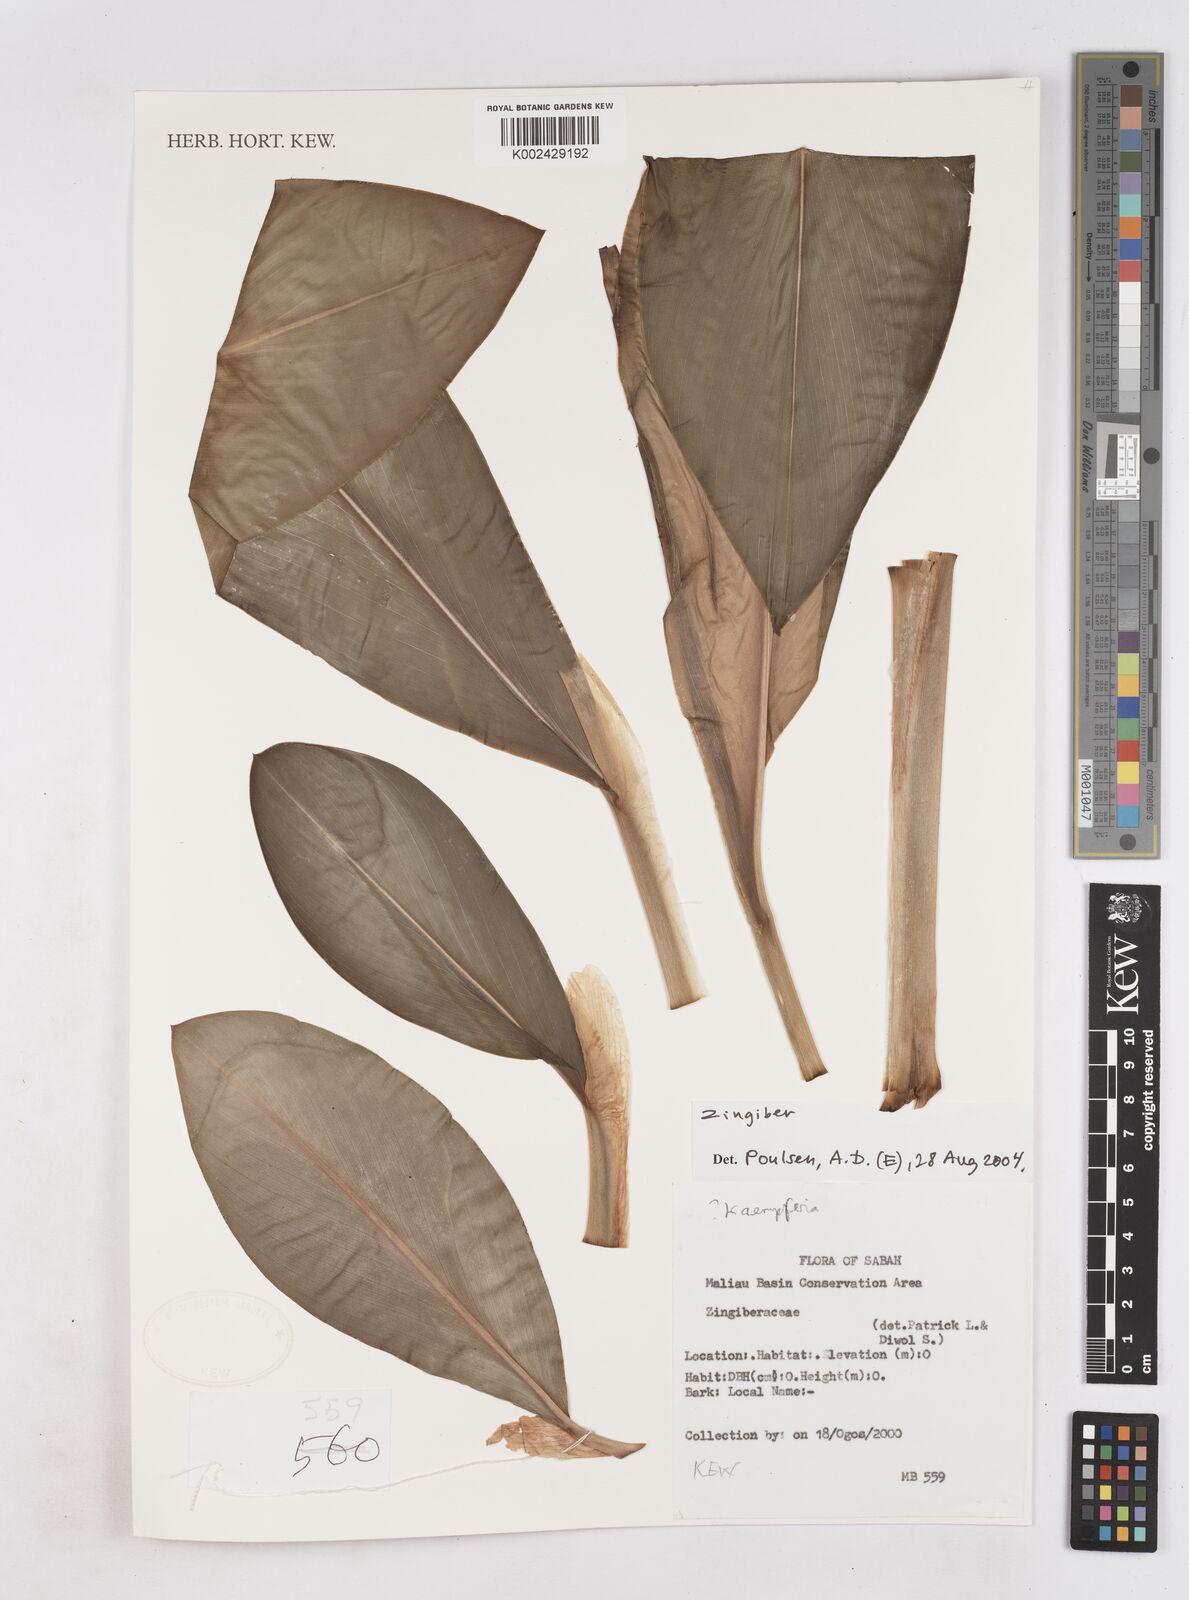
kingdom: Plantae
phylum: Tracheophyta
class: Liliopsida
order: Zingiberales
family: Zingiberaceae
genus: Zingiber
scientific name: Zingiber
